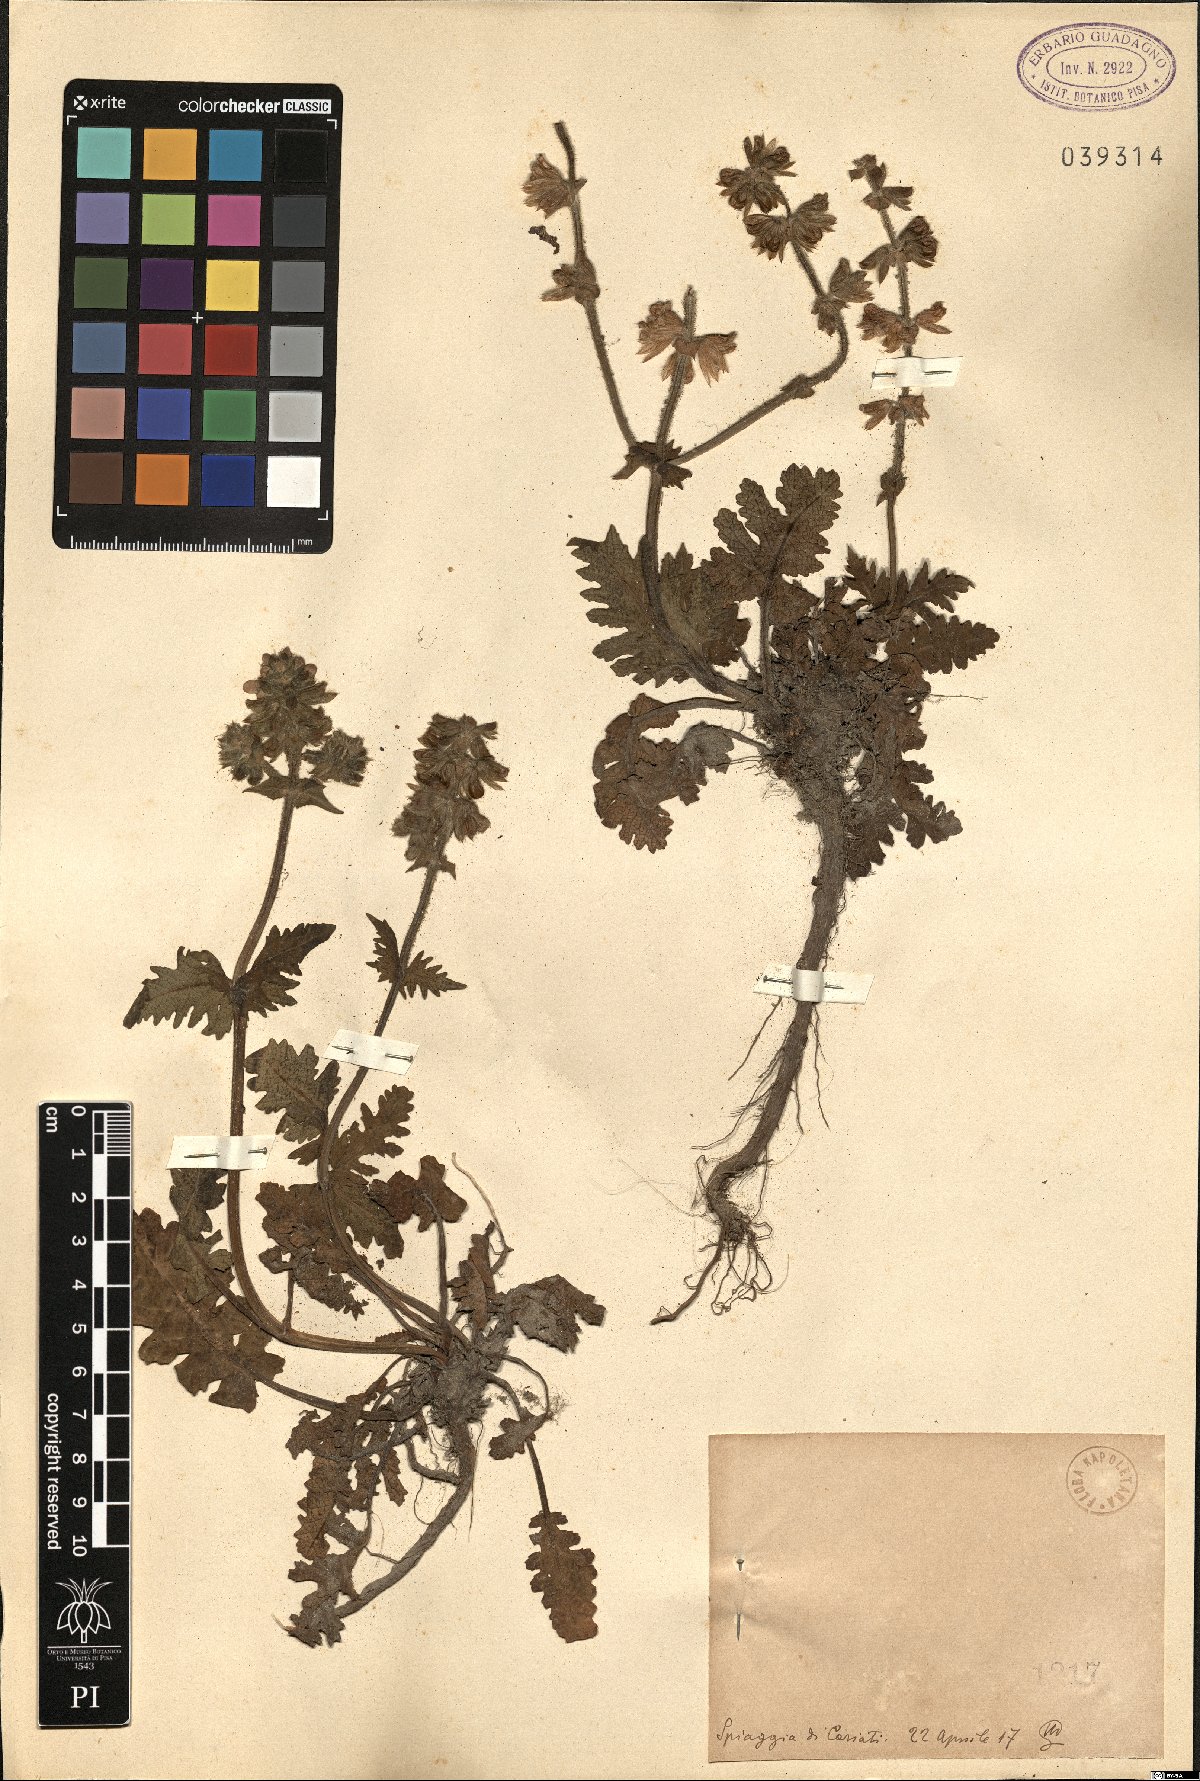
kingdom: Plantae
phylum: Tracheophyta
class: Magnoliopsida
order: Lamiales
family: Lamiaceae
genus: Salvia
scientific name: Salvia
